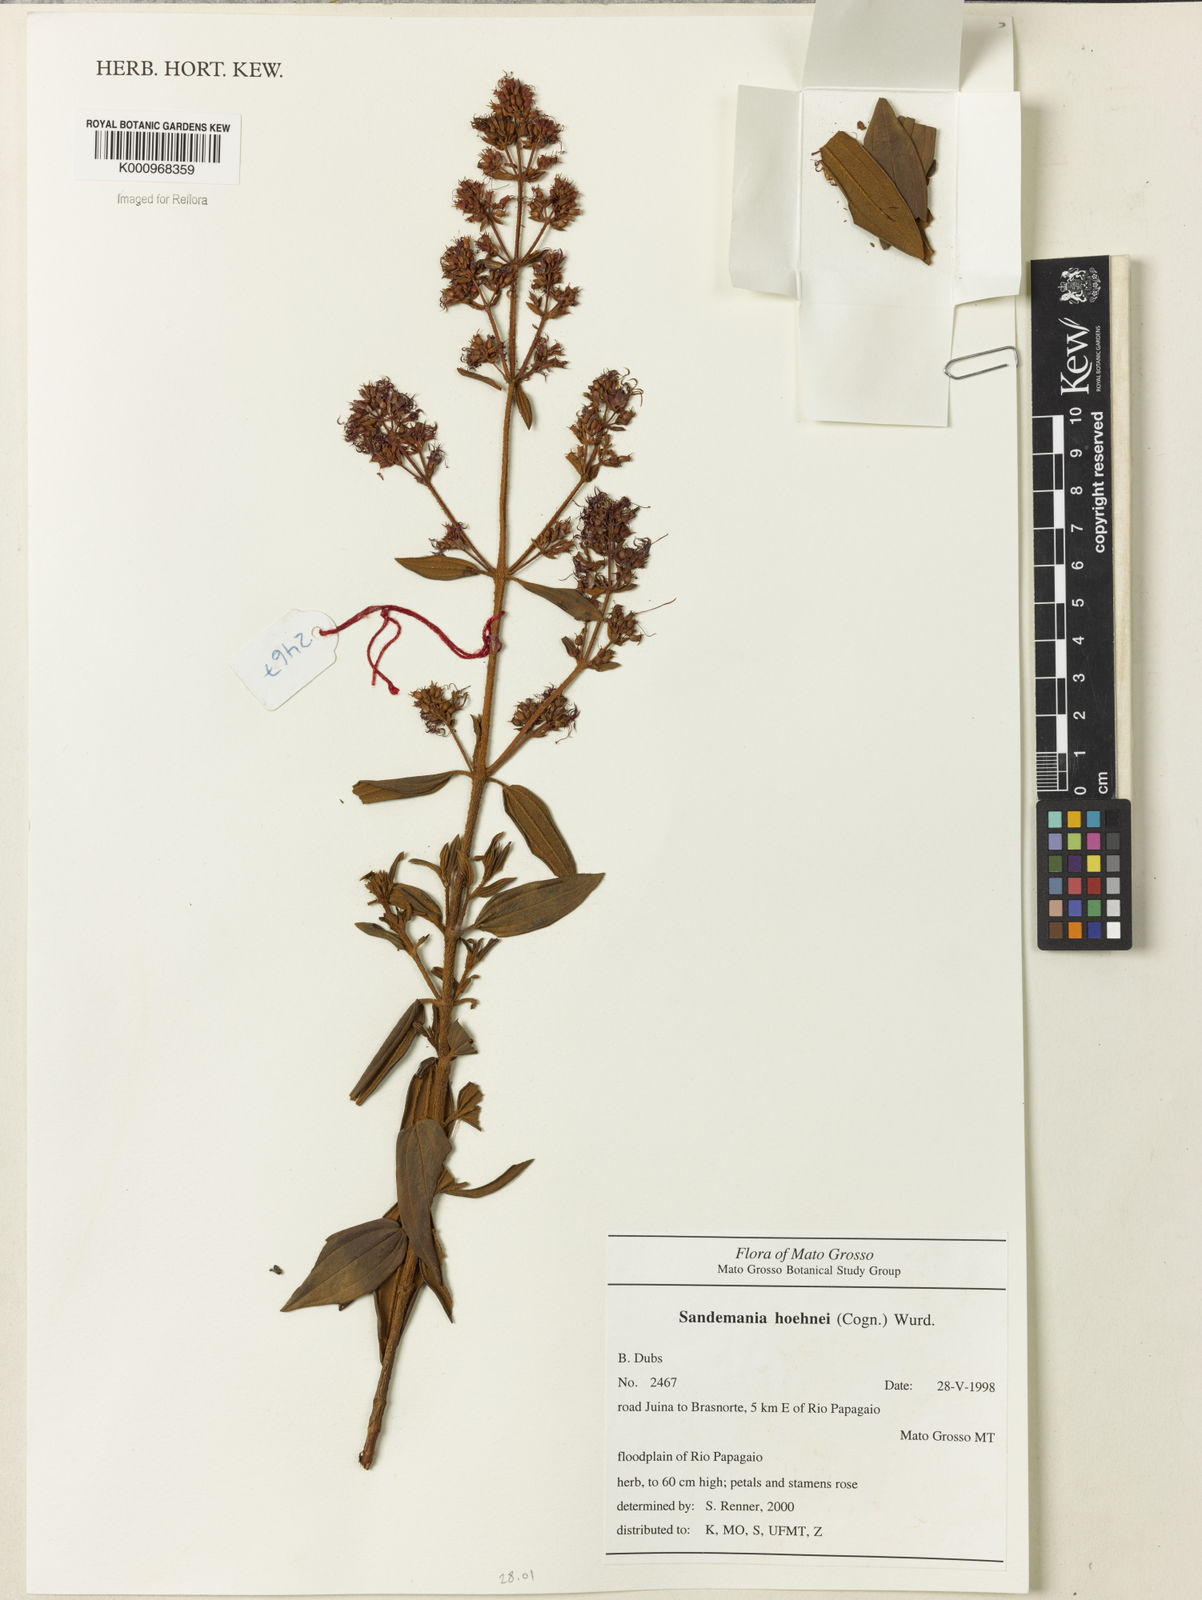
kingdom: Plantae
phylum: Tracheophyta
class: Magnoliopsida
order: Myrtales
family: Melastomataceae
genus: Sandemania
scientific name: Sandemania hoehnei
